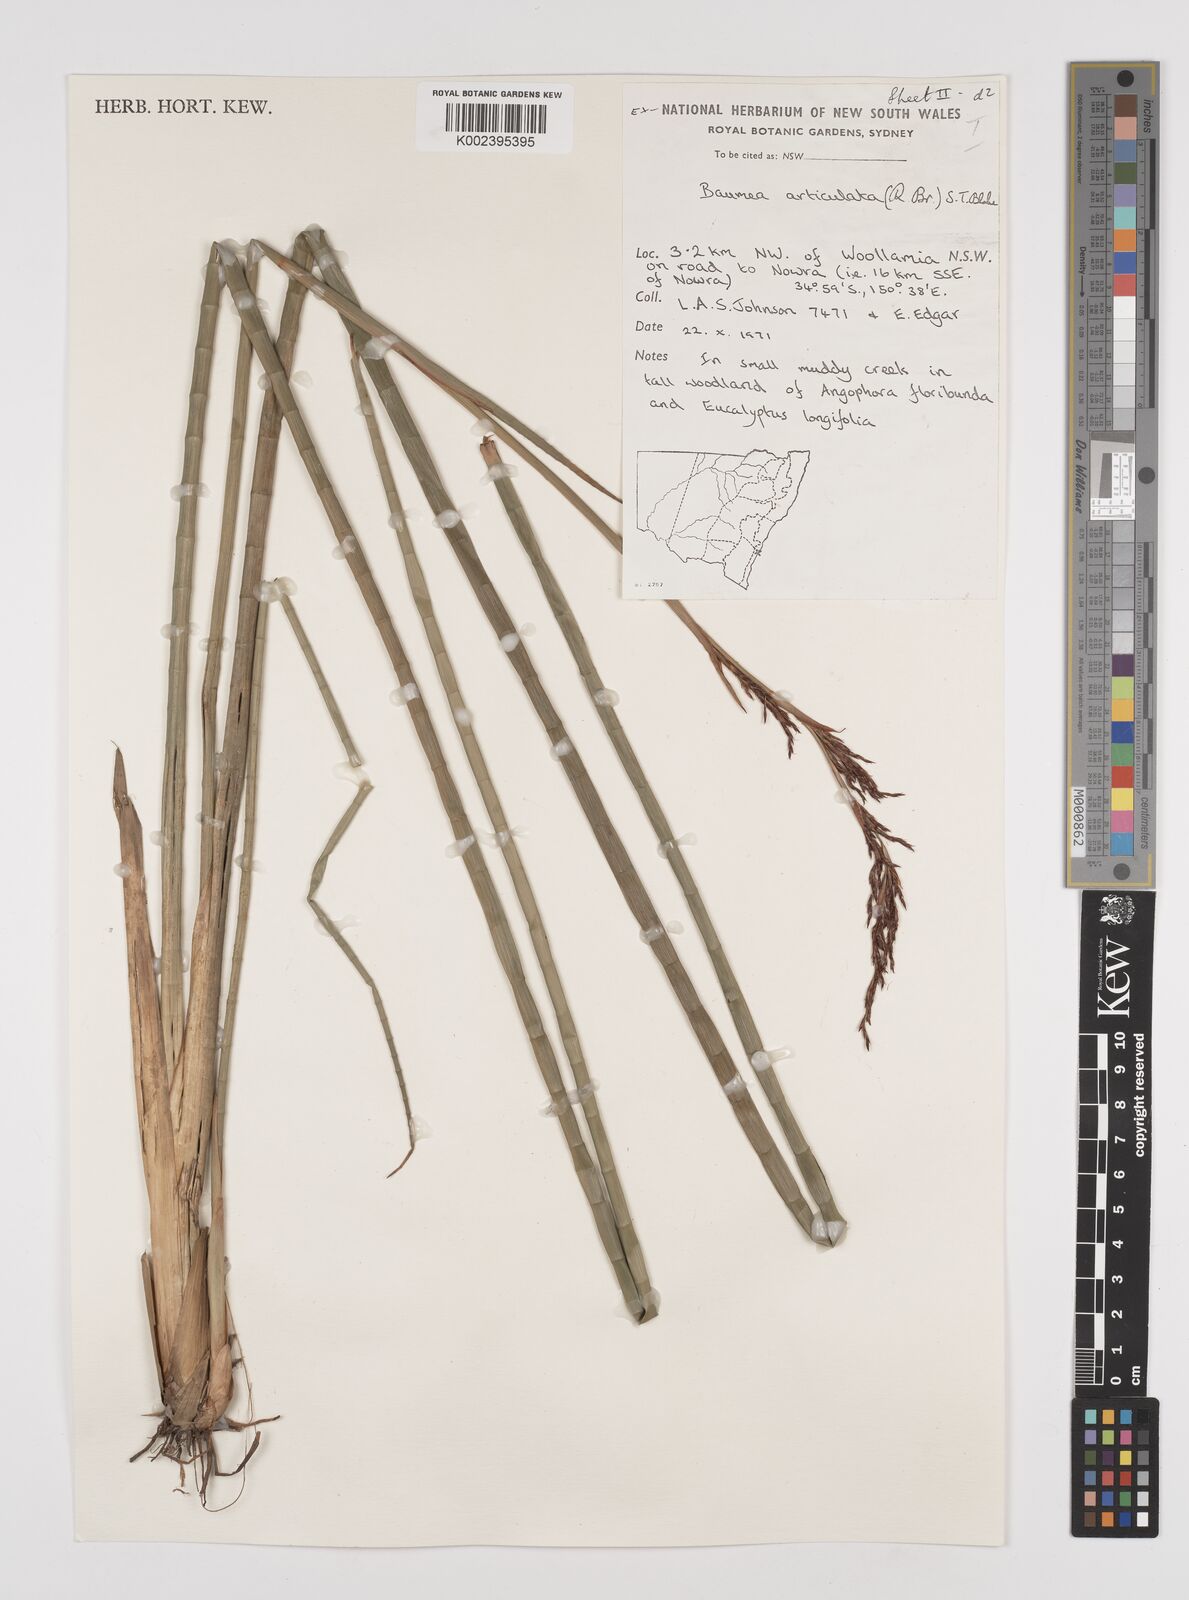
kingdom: Plantae
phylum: Tracheophyta
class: Liliopsida
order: Poales
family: Cyperaceae
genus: Machaerina
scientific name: Machaerina articulata
